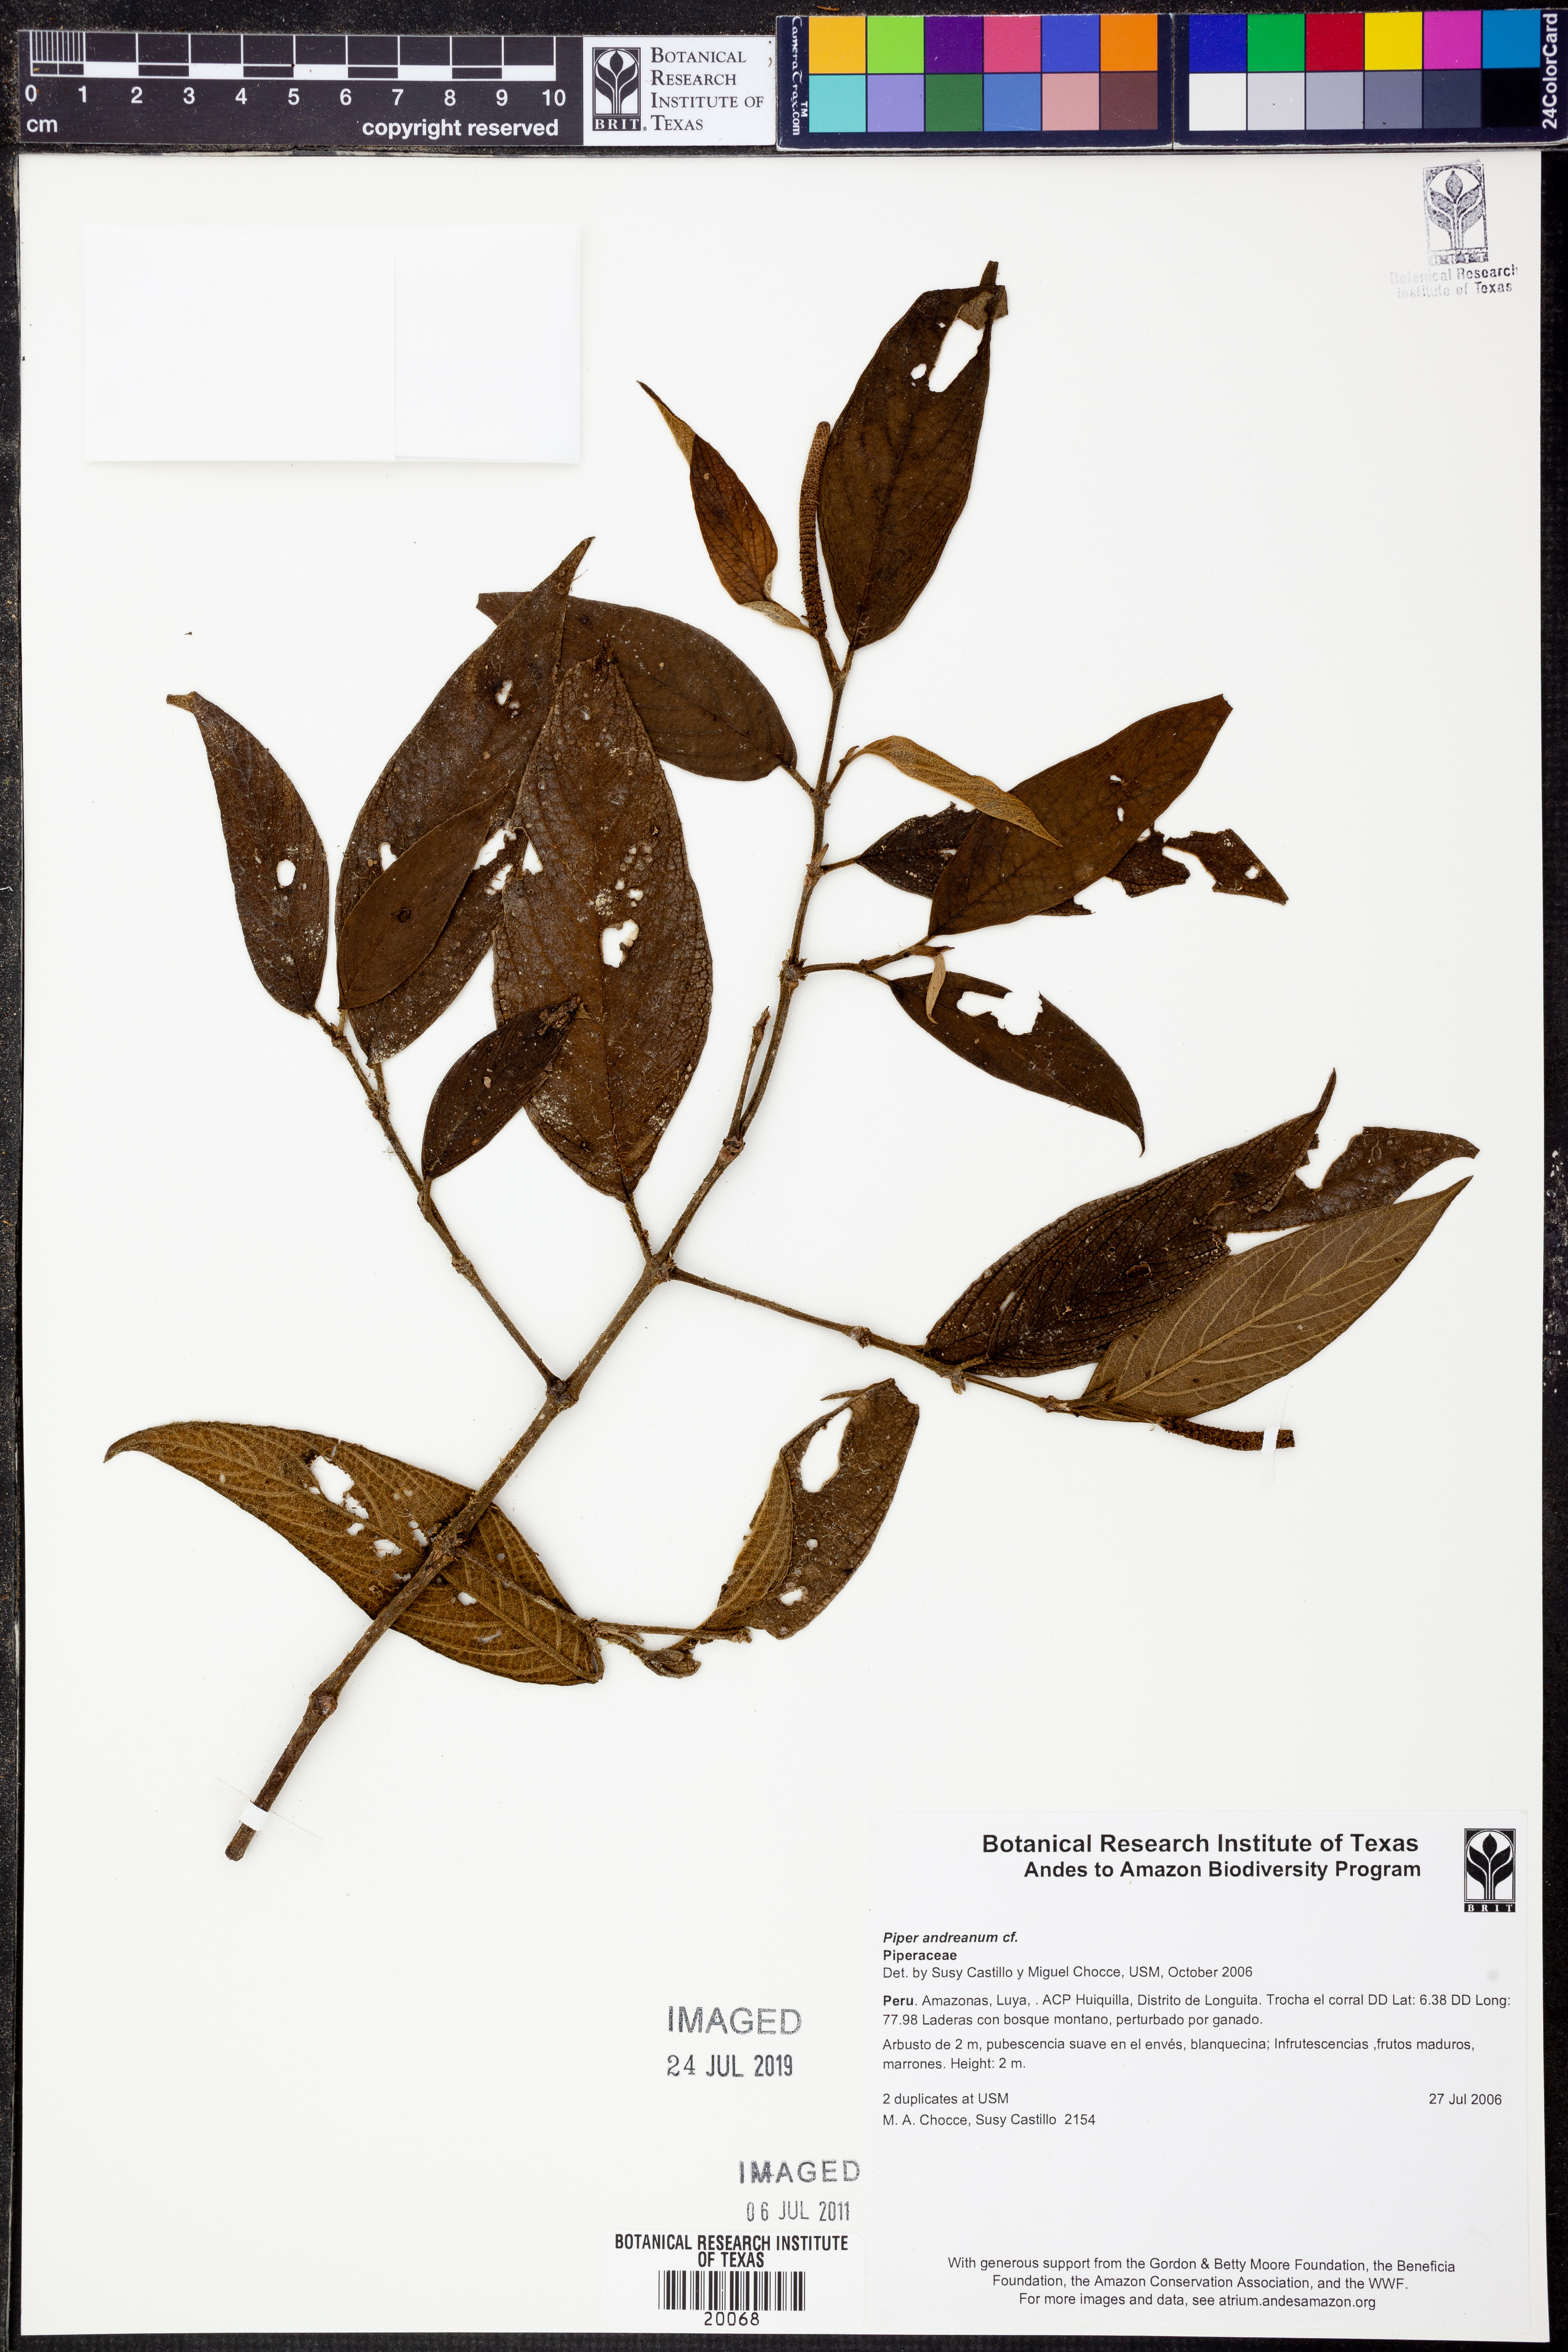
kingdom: Plantae
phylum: Tracheophyta
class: Magnoliopsida
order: Piperales
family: Piperaceae
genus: Piper
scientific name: Piper andreanum
